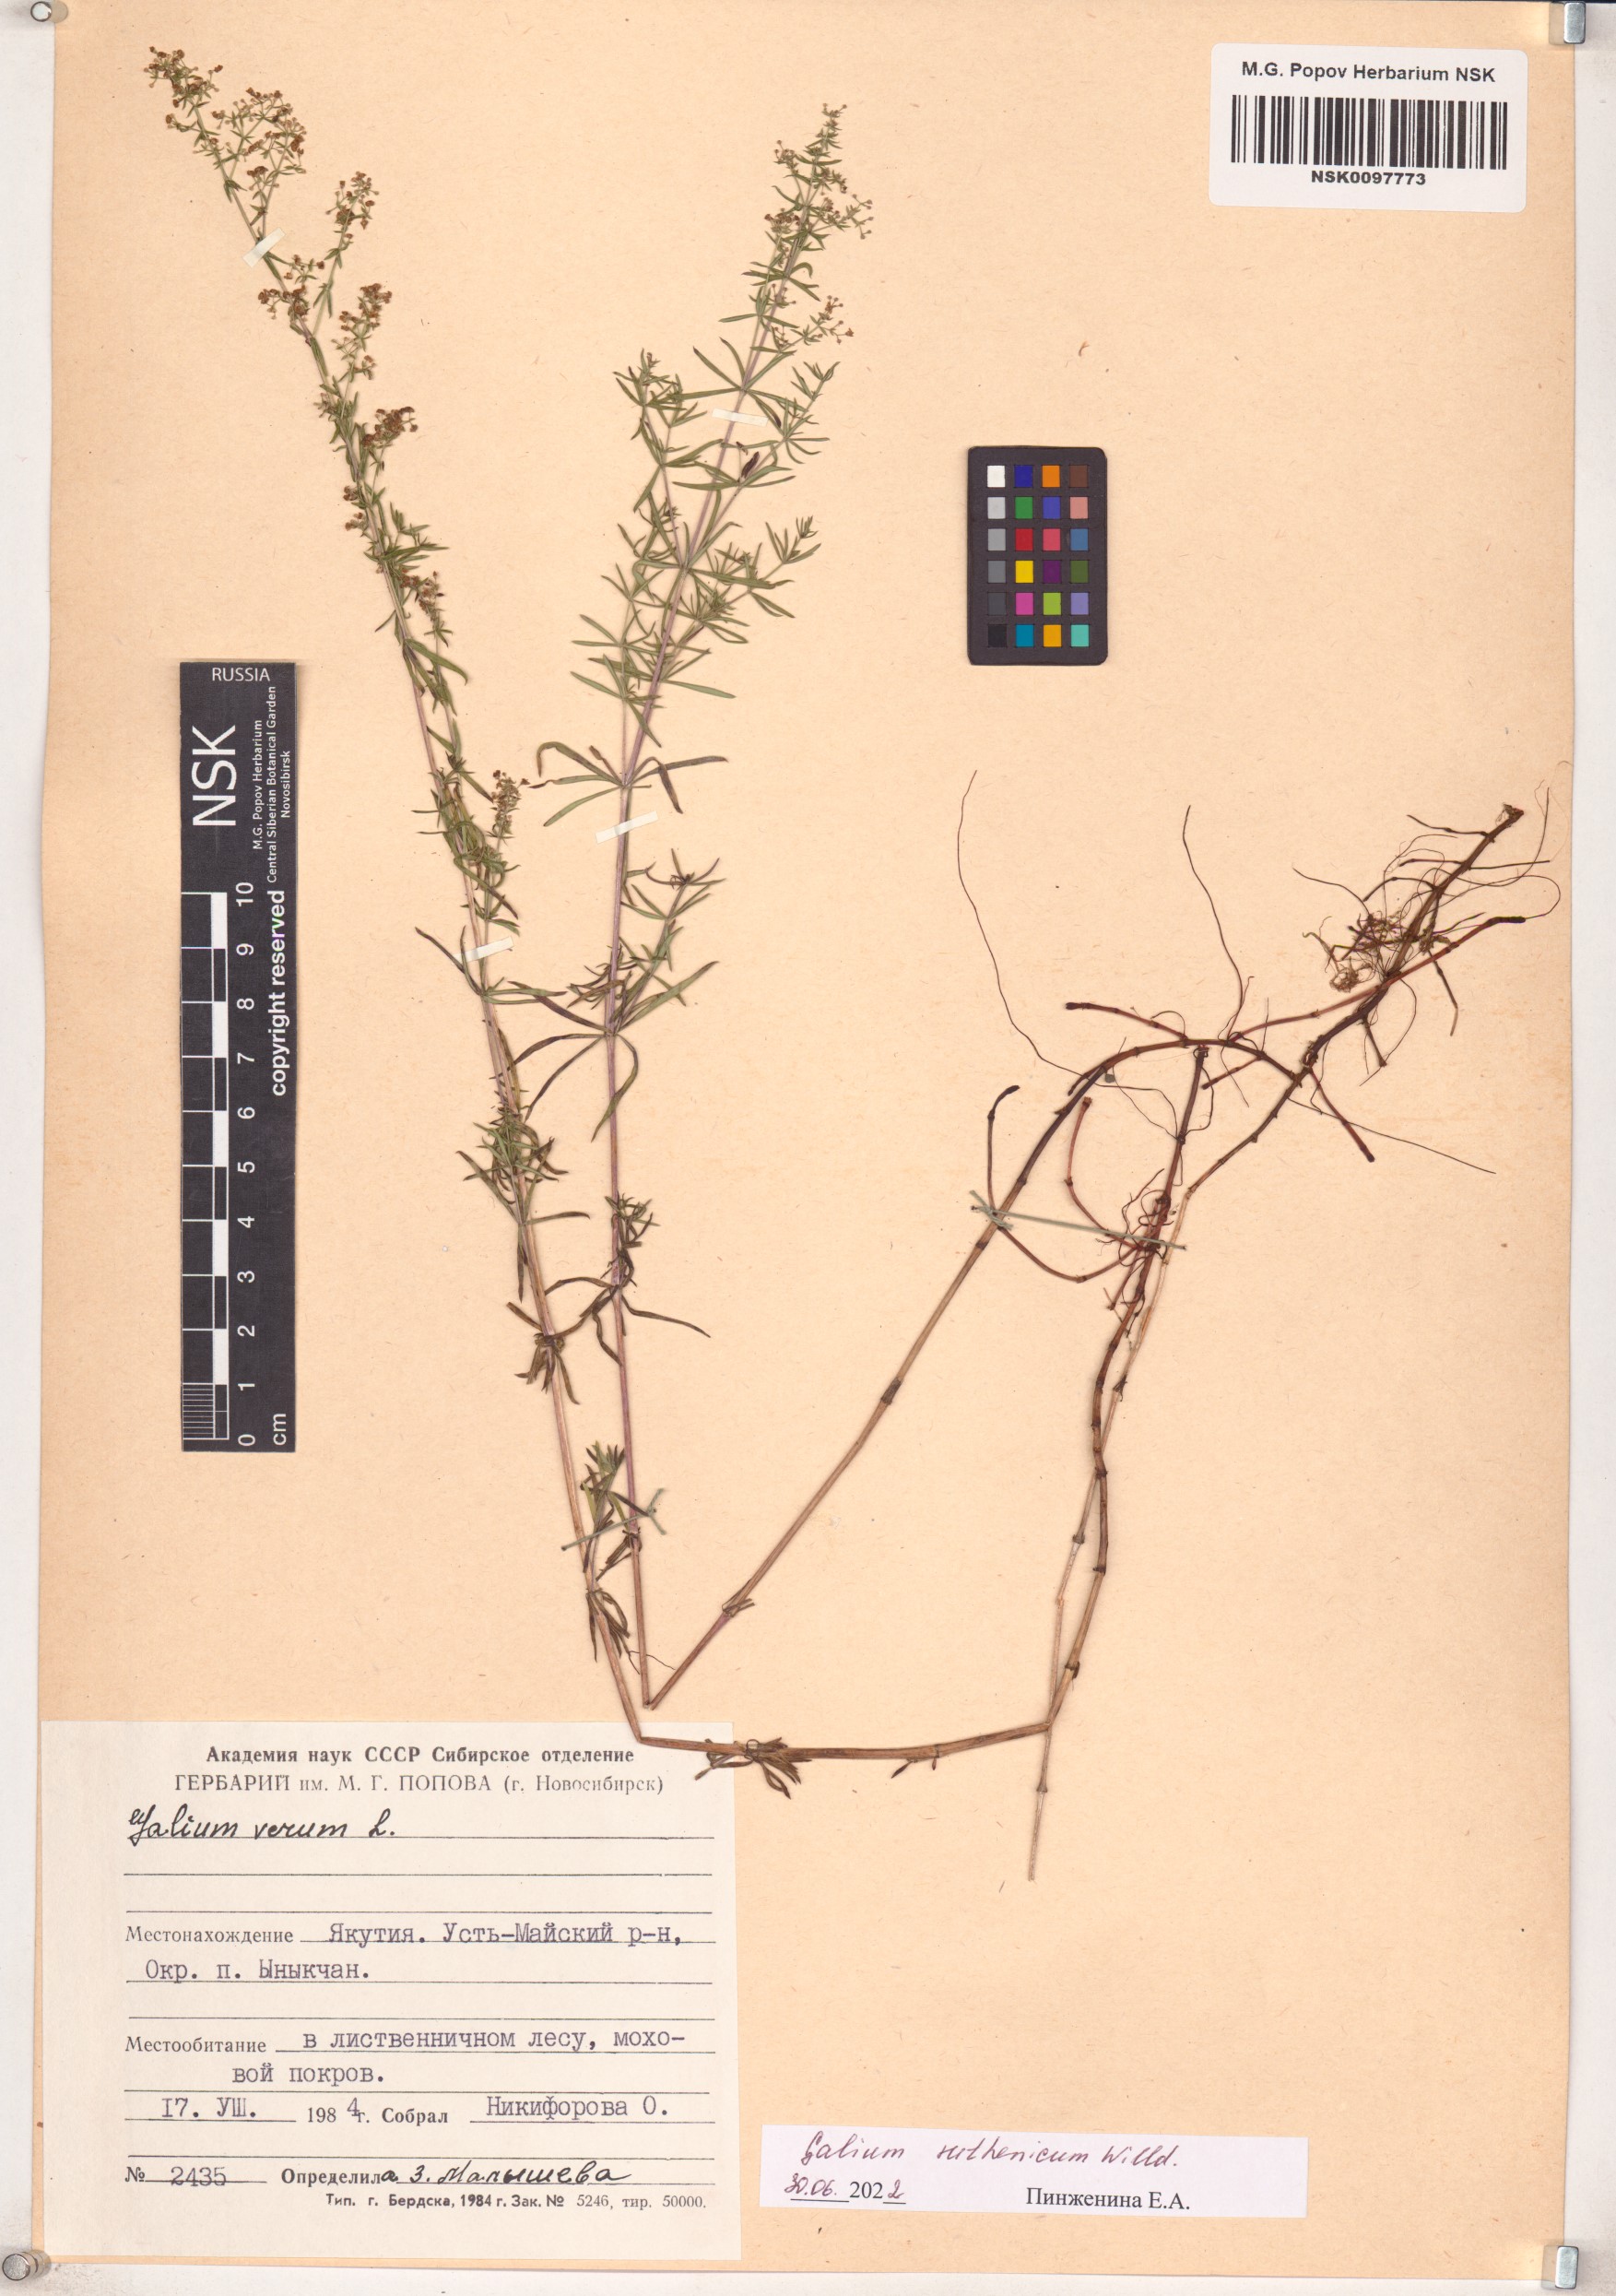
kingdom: Plantae
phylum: Tracheophyta
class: Magnoliopsida
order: Gentianales
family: Rubiaceae
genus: Galium
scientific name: Galium verum
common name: Lady's bedstraw
